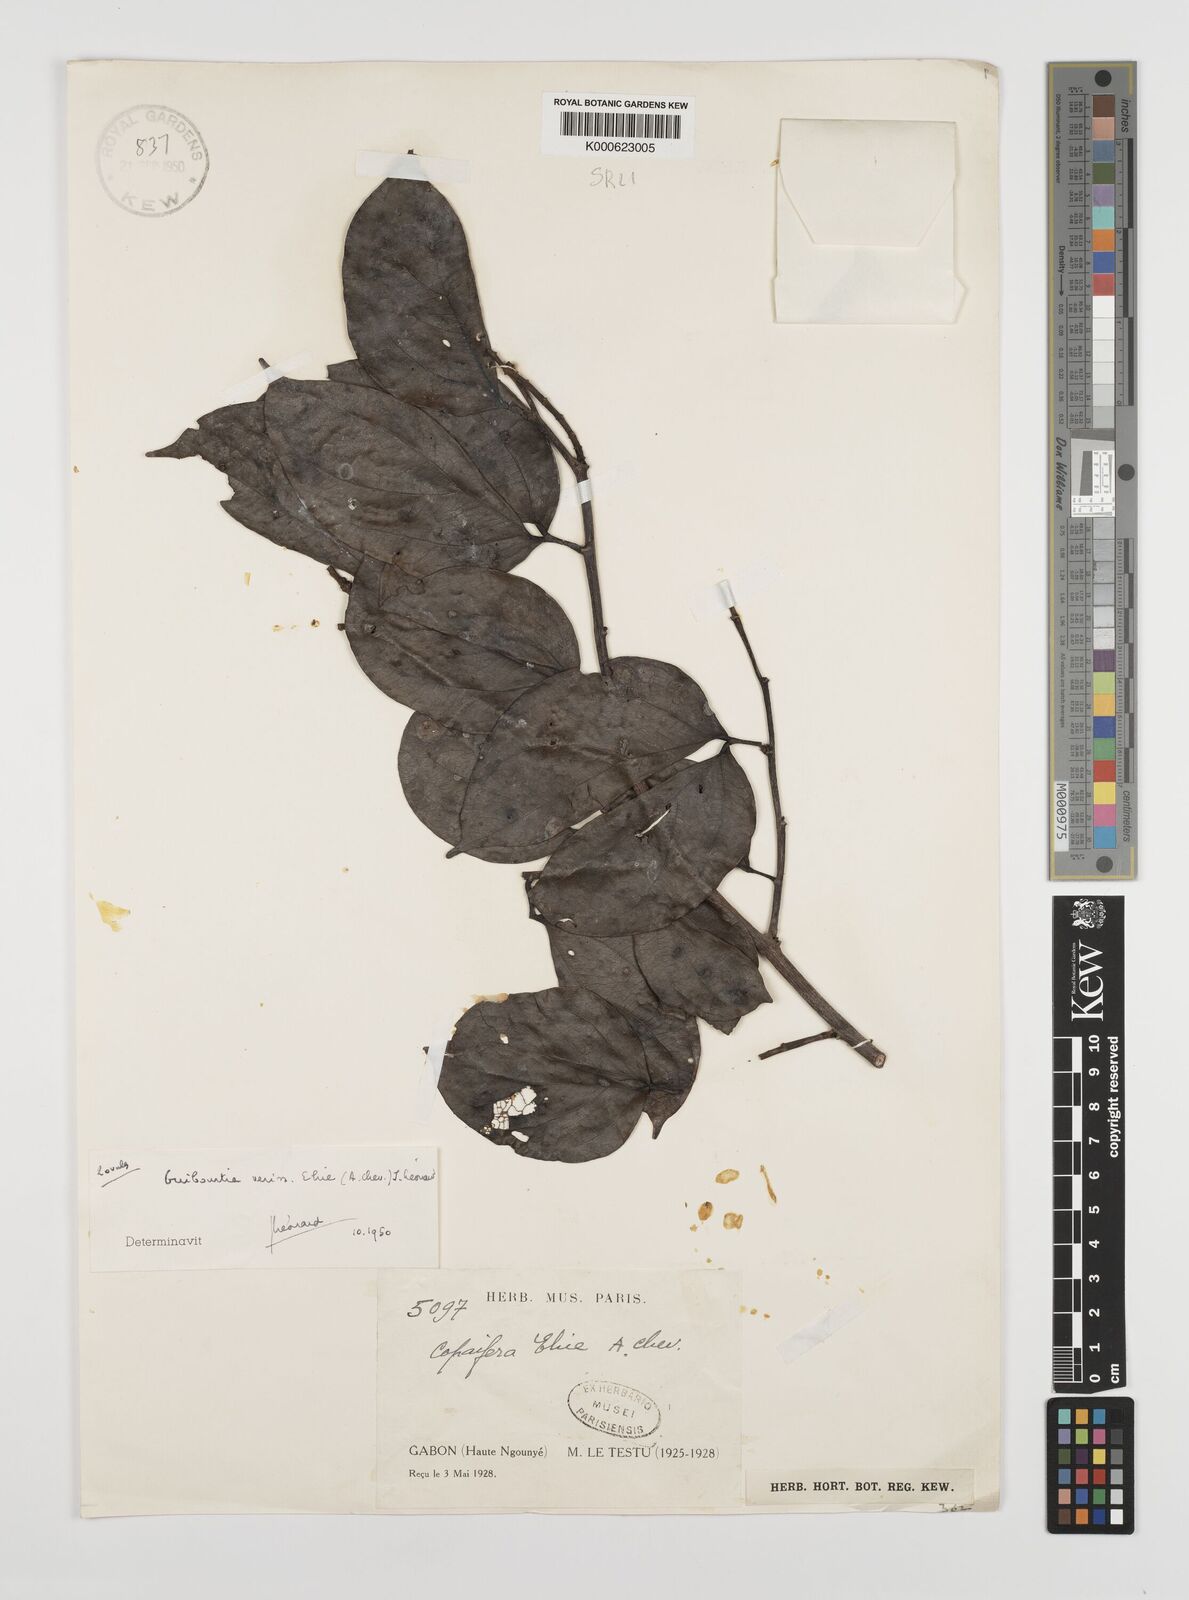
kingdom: Plantae
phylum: Tracheophyta
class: Magnoliopsida
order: Fabales
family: Fabaceae
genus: Guibourtia
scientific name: Guibourtia ehie
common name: Black hyedua
